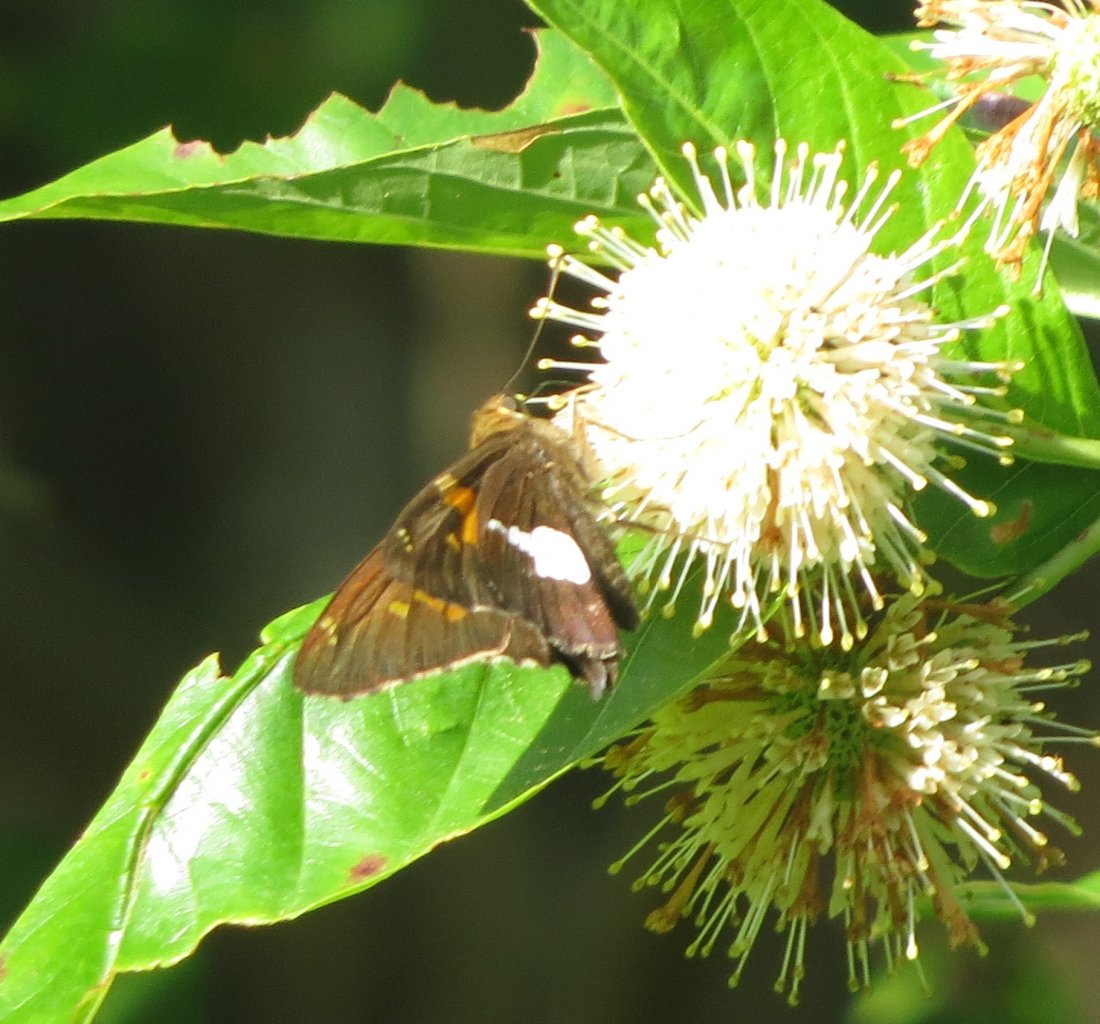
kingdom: Animalia
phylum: Arthropoda
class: Insecta
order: Lepidoptera
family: Hesperiidae
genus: Epargyreus
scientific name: Epargyreus clarus
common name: Silver-spotted Skipper
